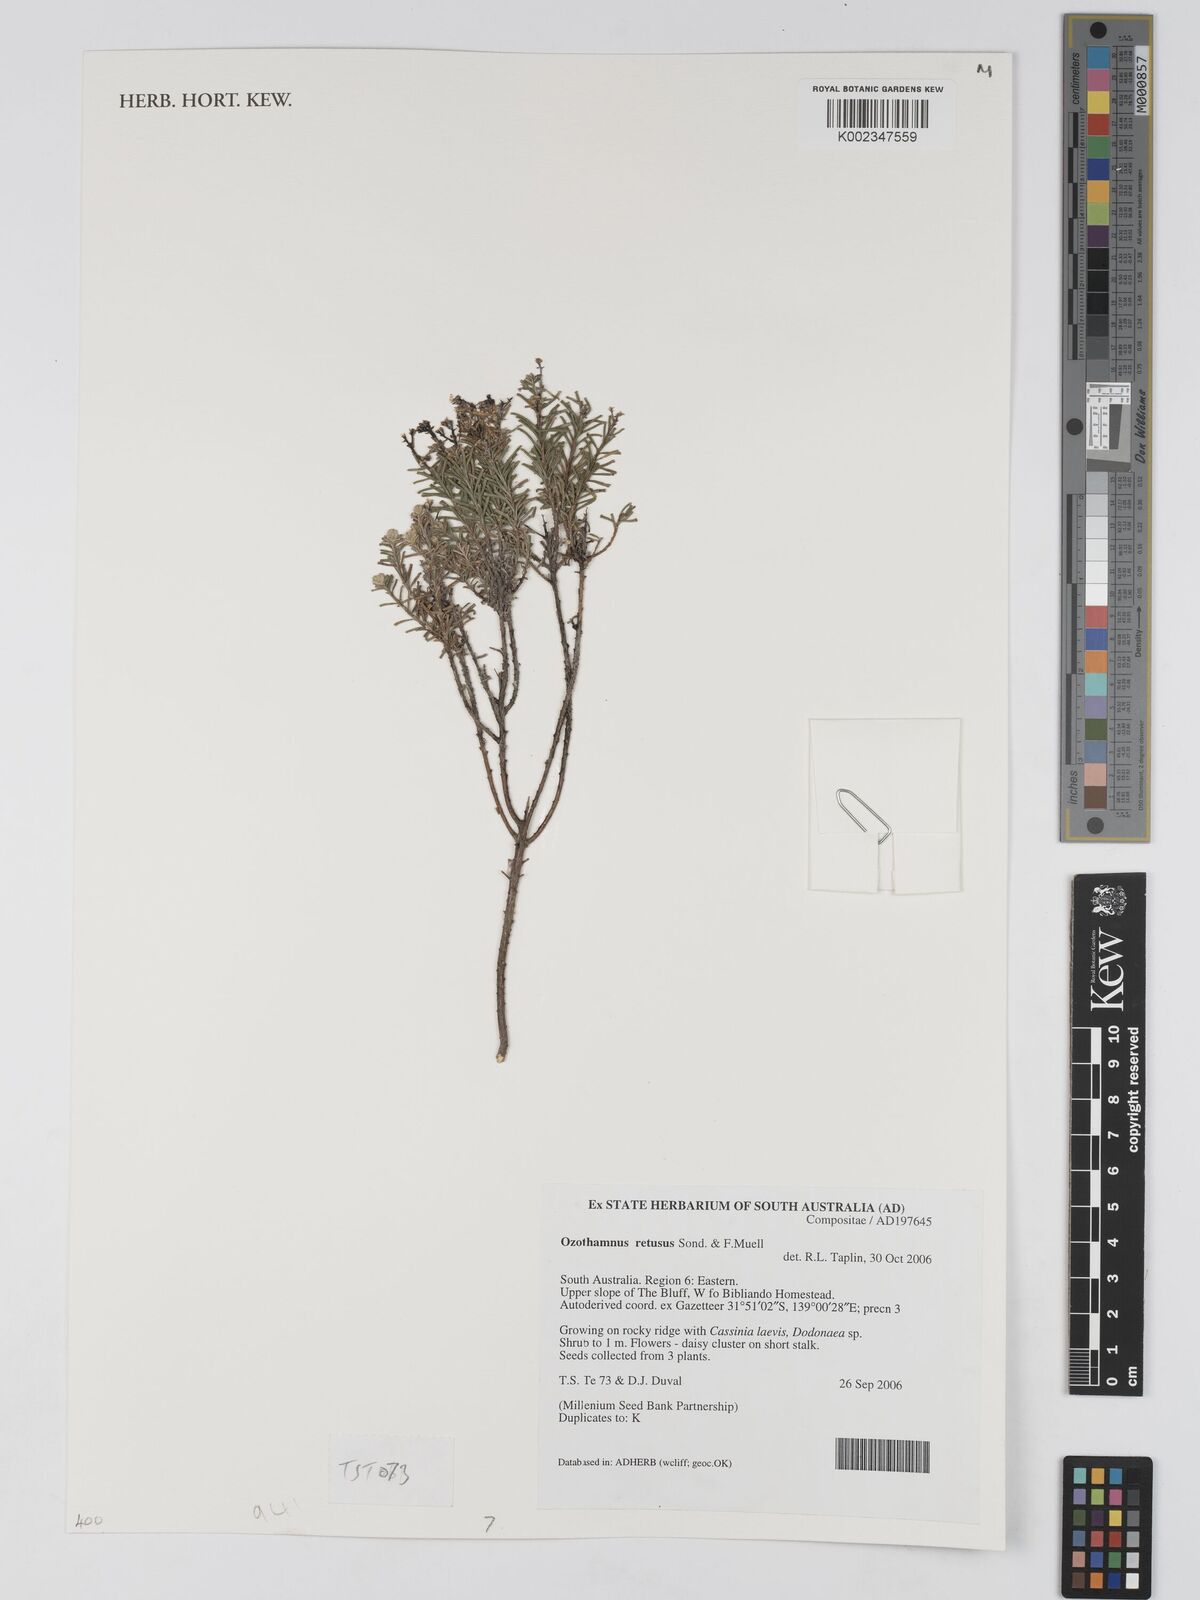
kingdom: Plantae
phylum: Tracheophyta
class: Magnoliopsida
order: Asterales
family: Asteraceae
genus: Ozothamnus
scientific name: Ozothamnus adnatus
